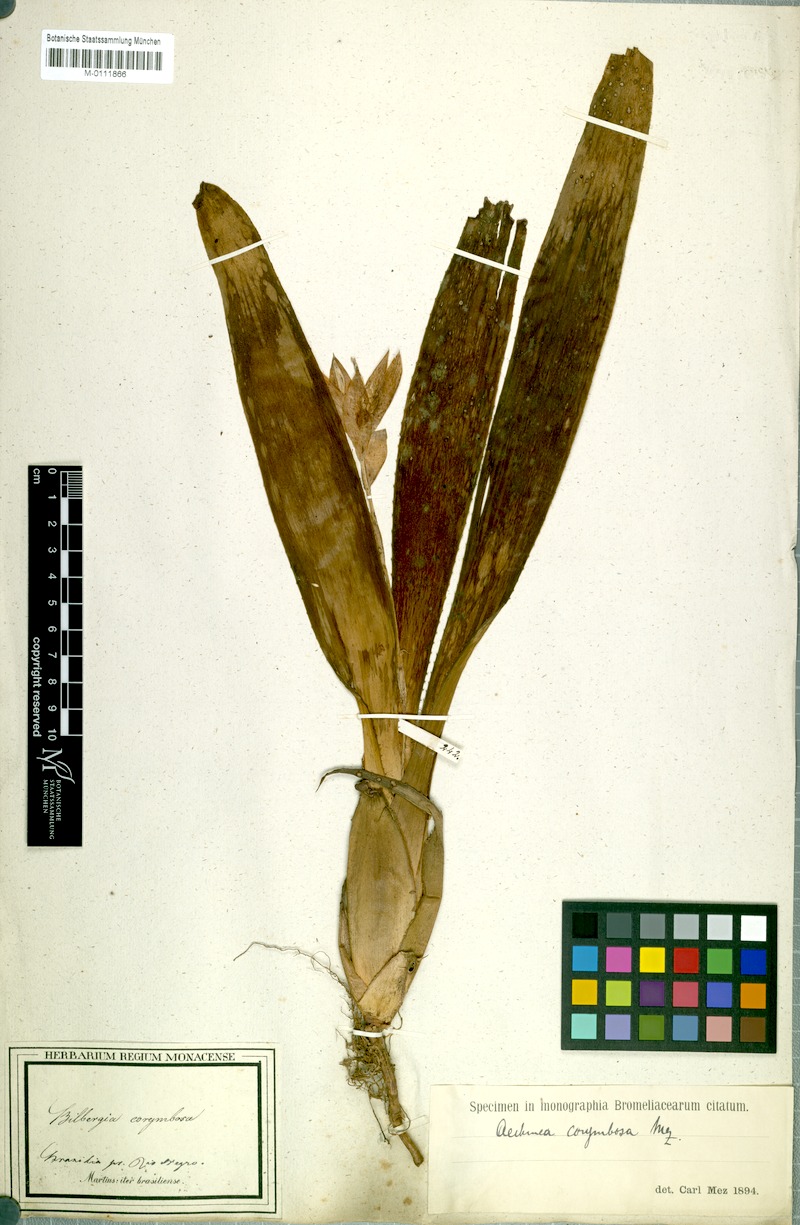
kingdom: Plantae
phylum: Tracheophyta
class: Liliopsida
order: Poales
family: Bromeliaceae
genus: Aechmea
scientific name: Aechmea corymbosa
